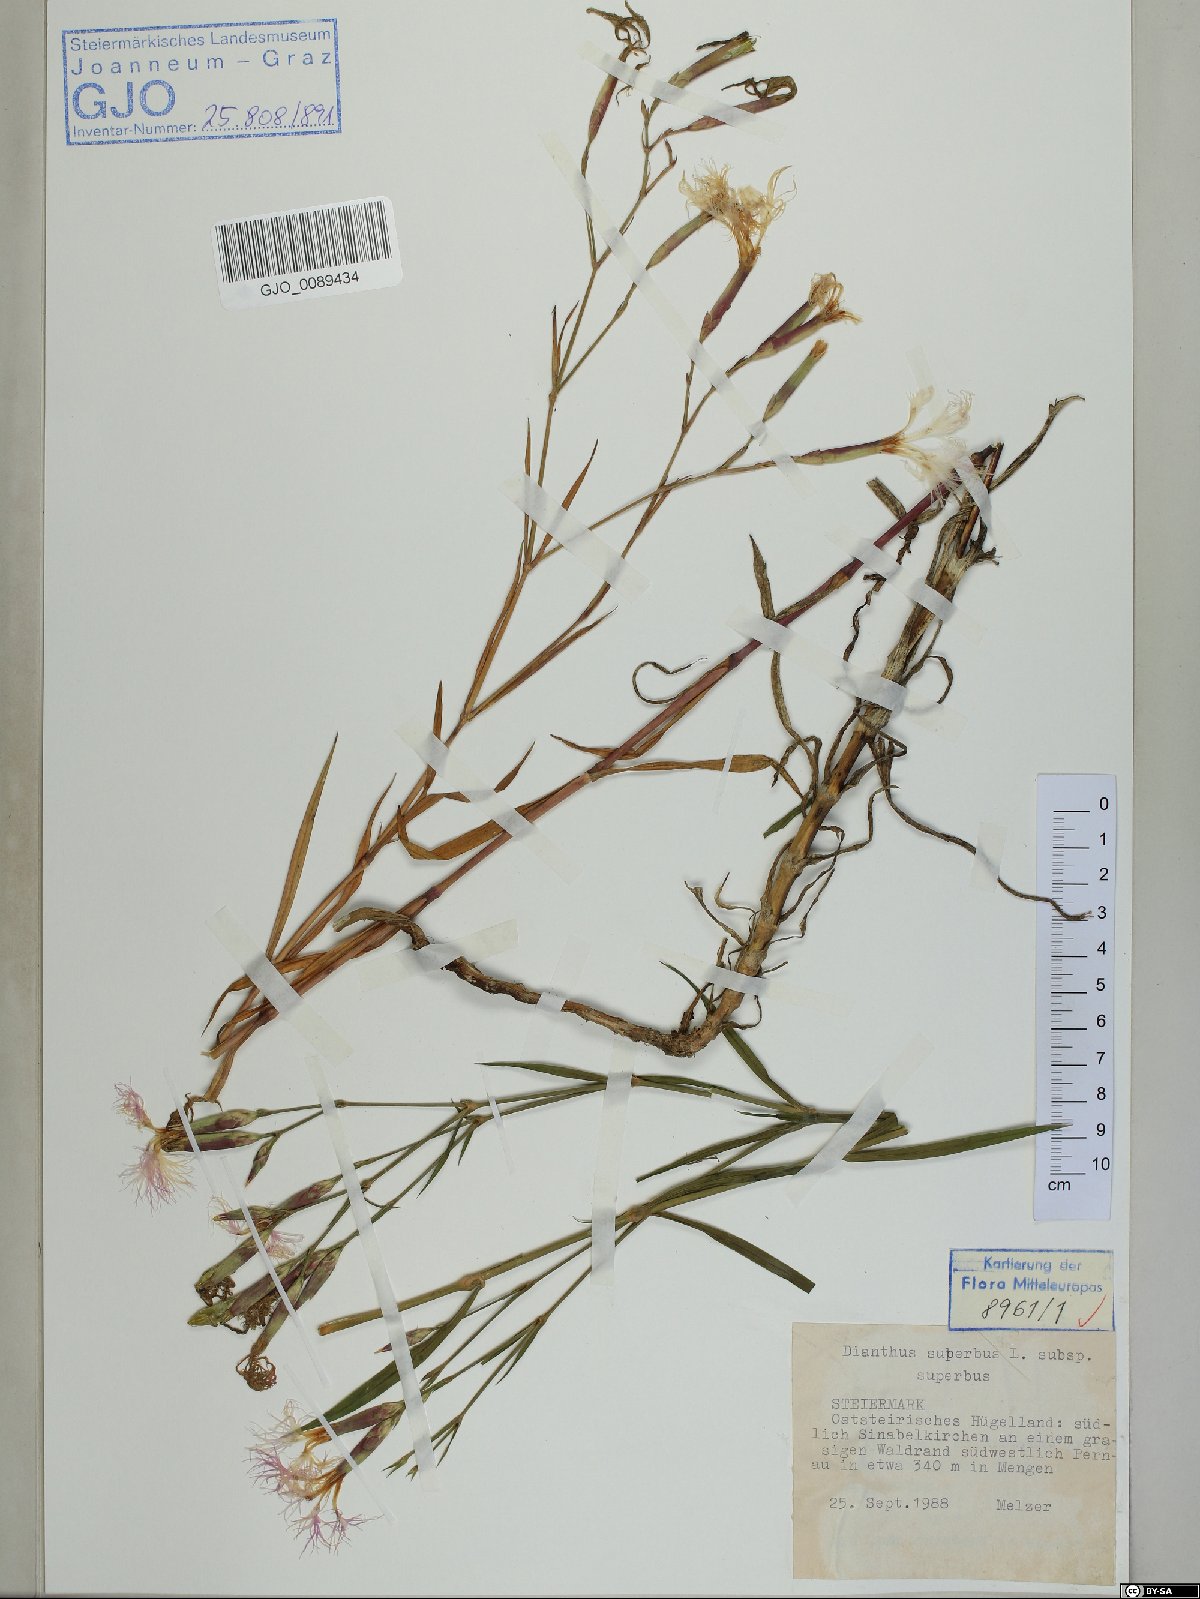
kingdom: Plantae
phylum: Tracheophyta
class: Magnoliopsida
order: Caryophyllales
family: Caryophyllaceae
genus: Dianthus
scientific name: Dianthus superbus
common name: Fringed pink
